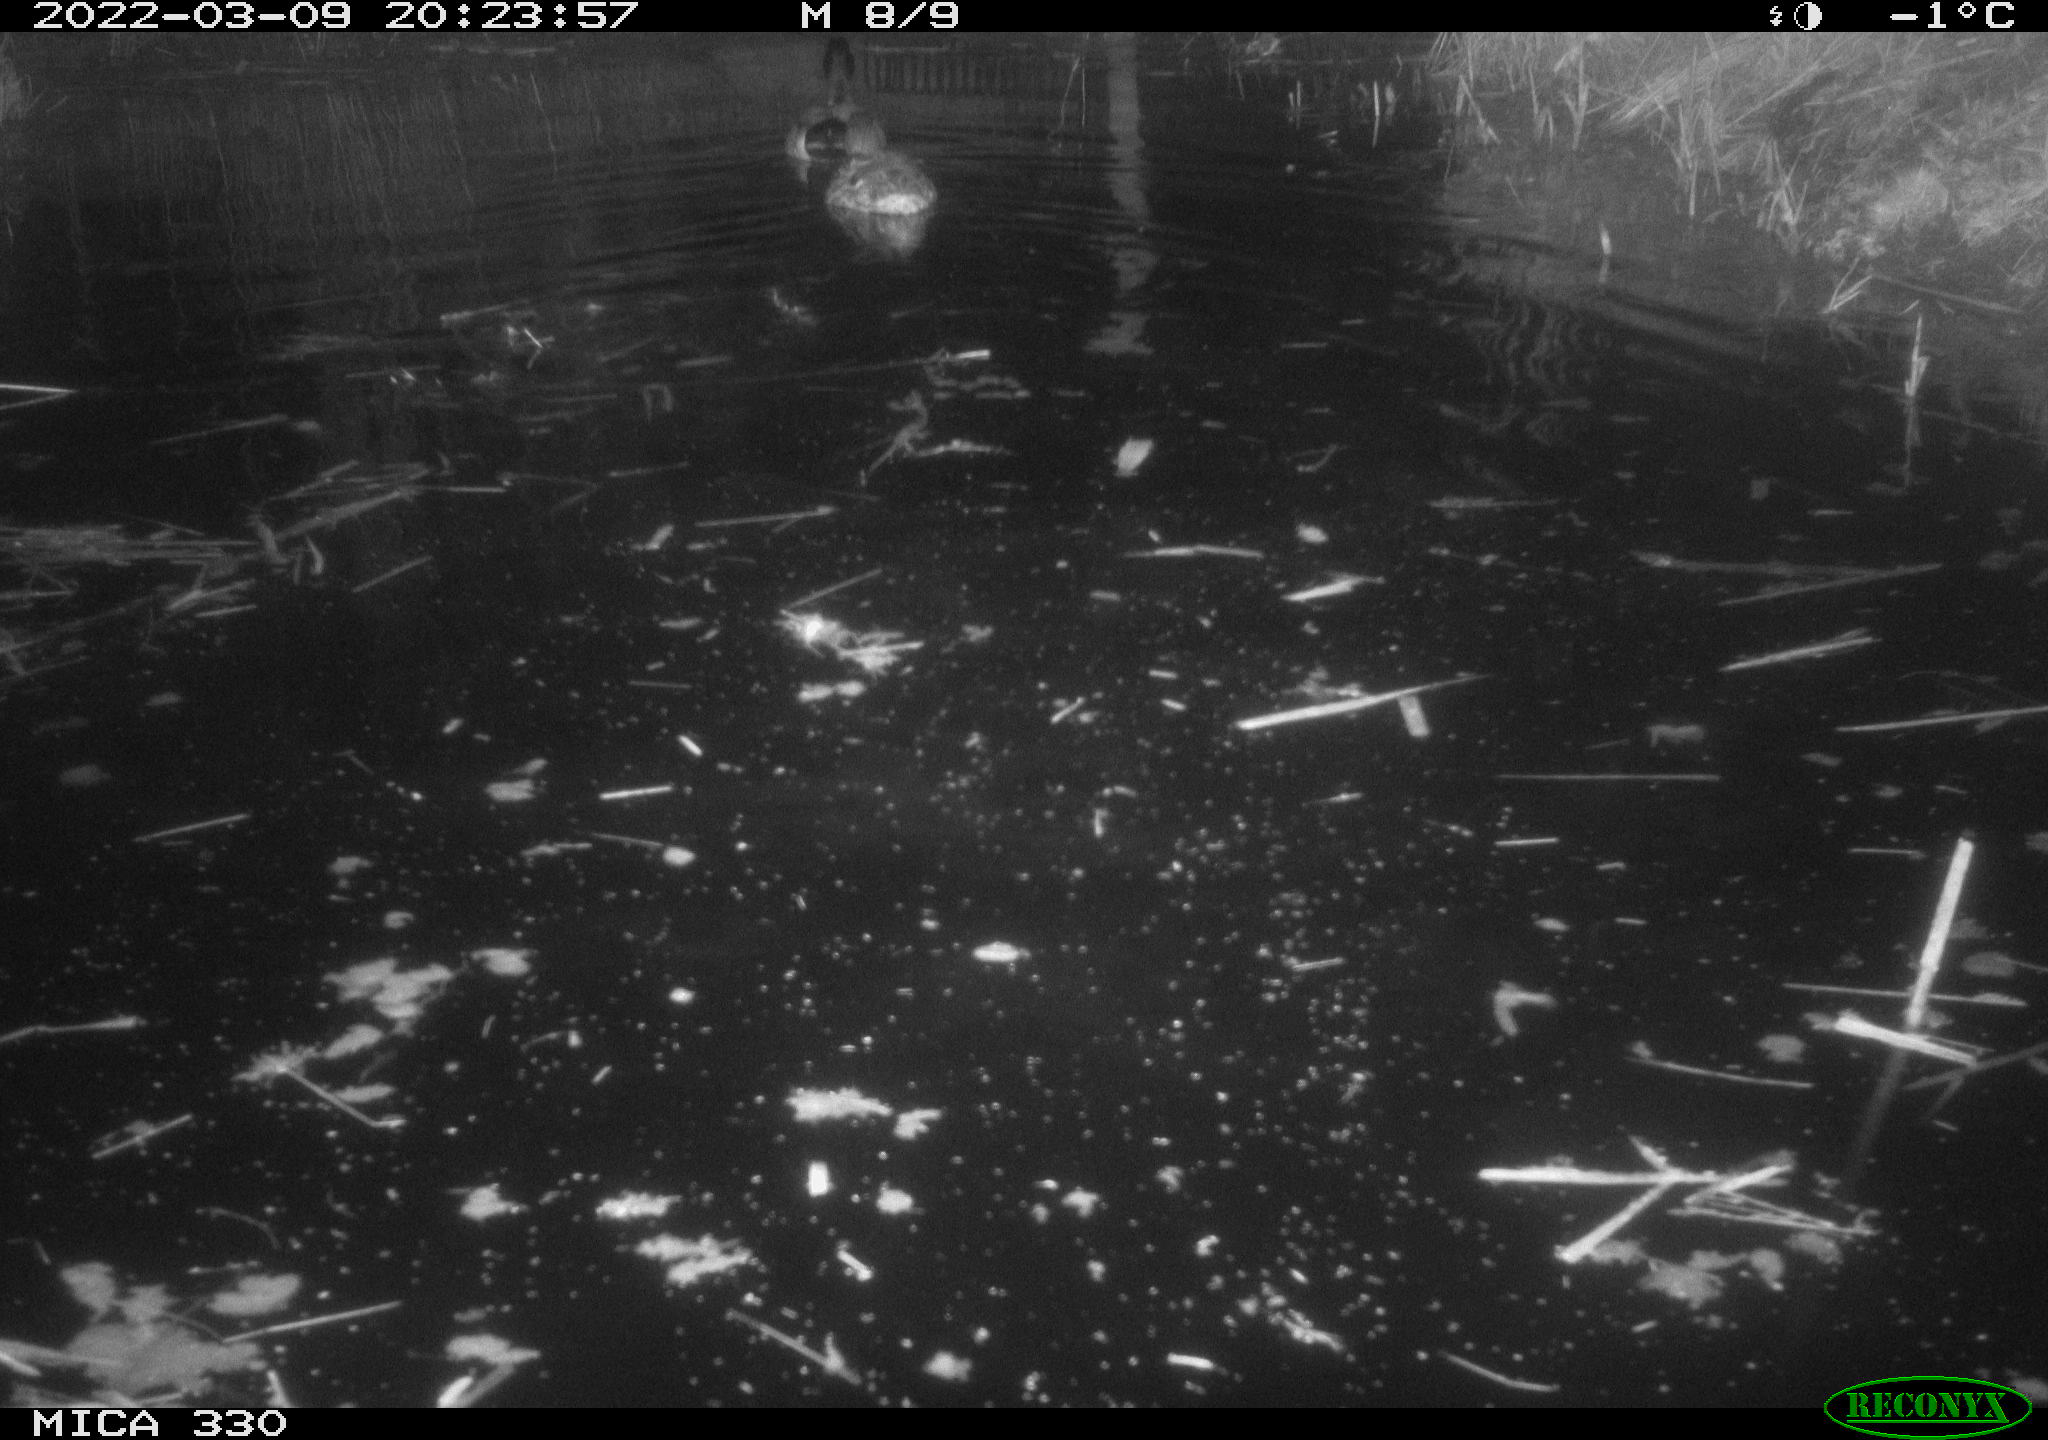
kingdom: Animalia
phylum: Chordata
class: Aves
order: Anseriformes
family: Anatidae
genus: Anas
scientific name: Anas platyrhynchos
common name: Mallard
